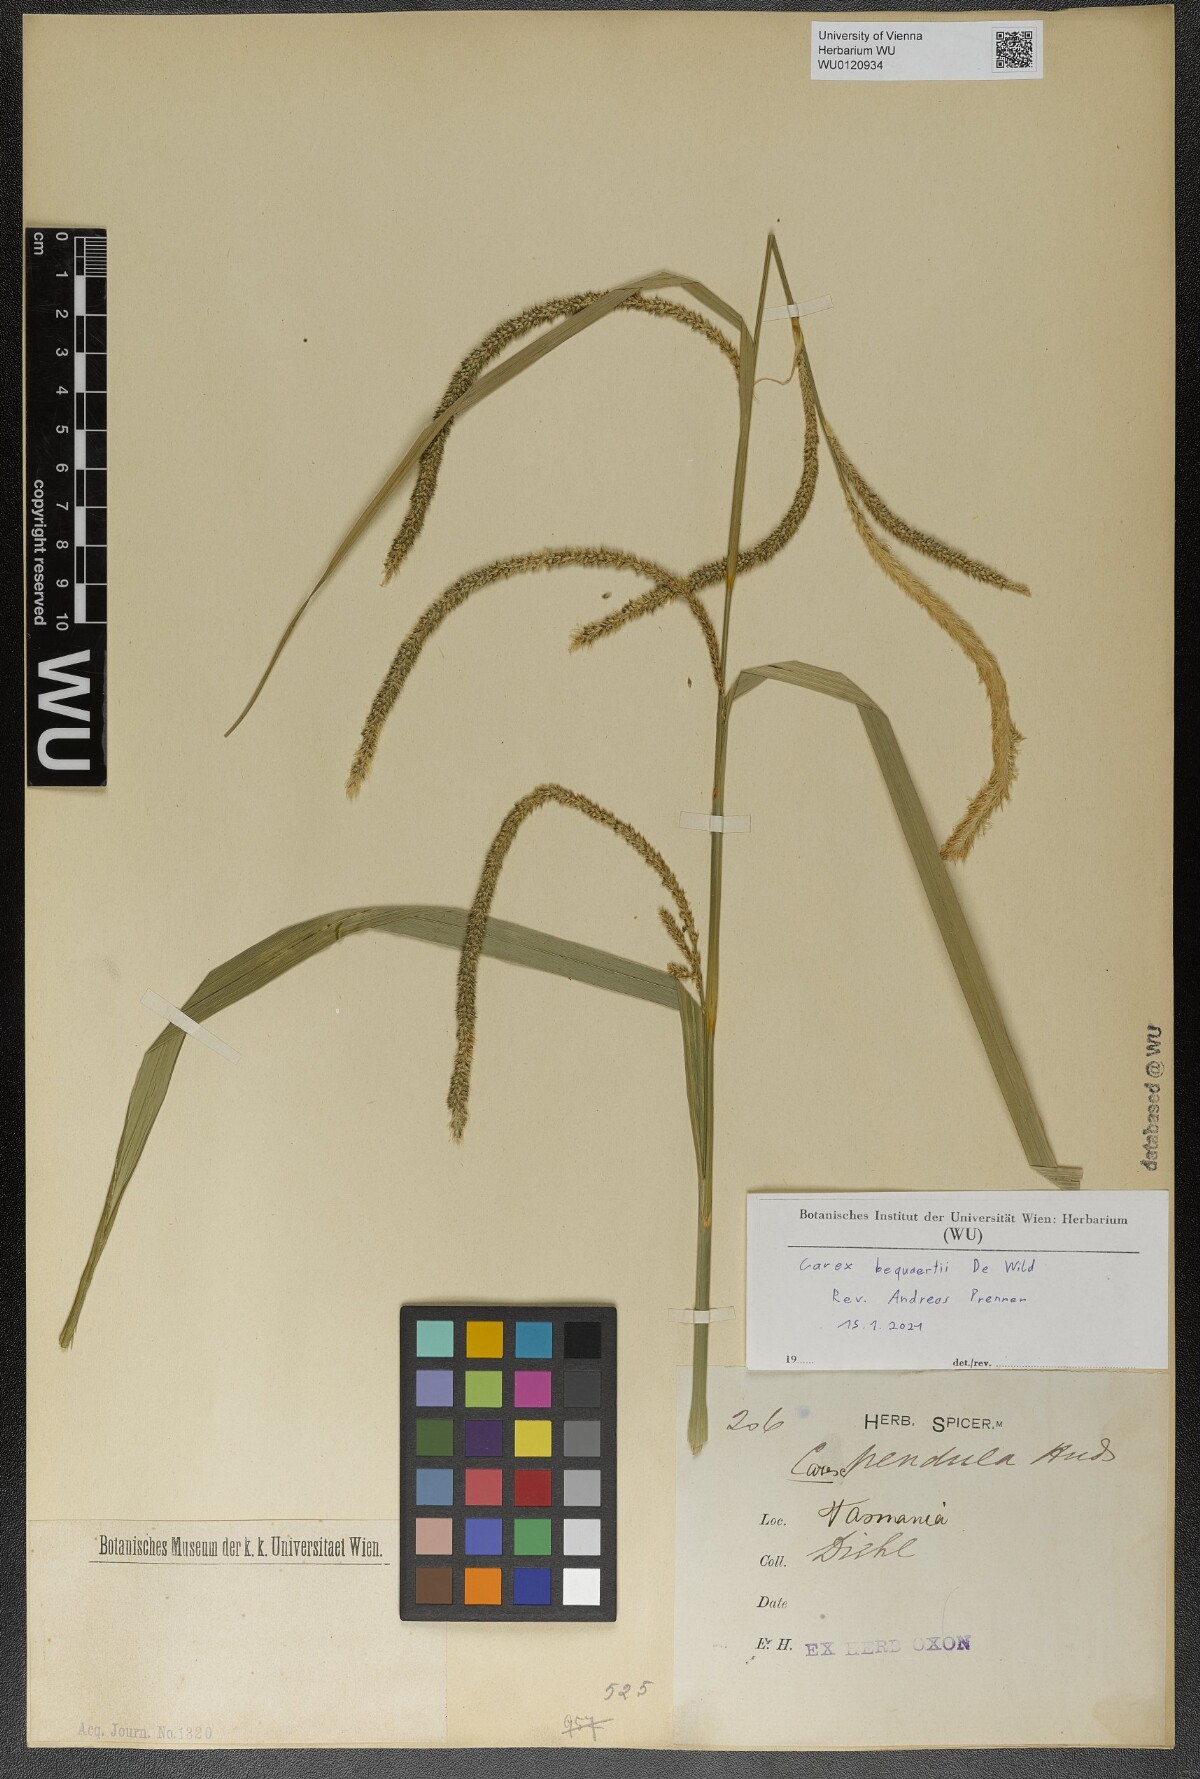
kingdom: Plantae
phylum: Tracheophyta
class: Liliopsida
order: Poales
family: Cyperaceae
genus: Carex
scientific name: Carex bequaertii
